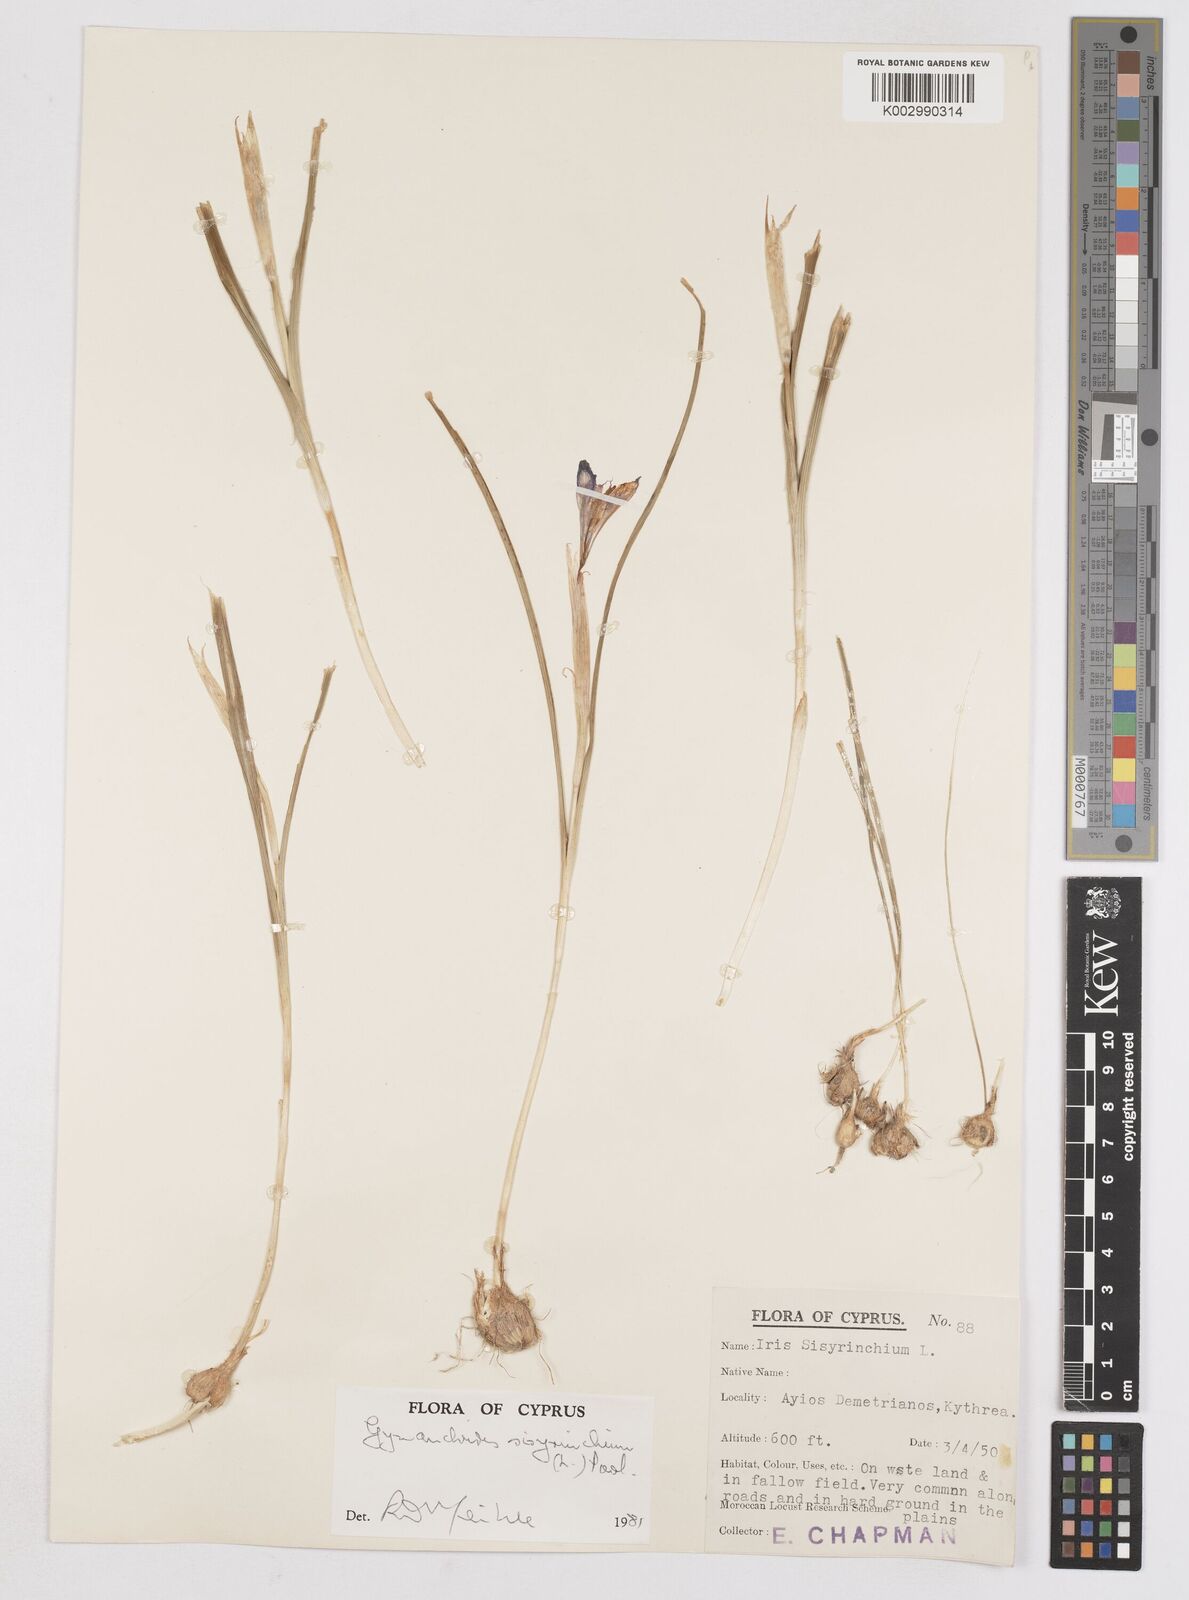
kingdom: Plantae
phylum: Tracheophyta
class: Liliopsida
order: Asparagales
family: Iridaceae
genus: Moraea
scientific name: Moraea sisyrinchium
